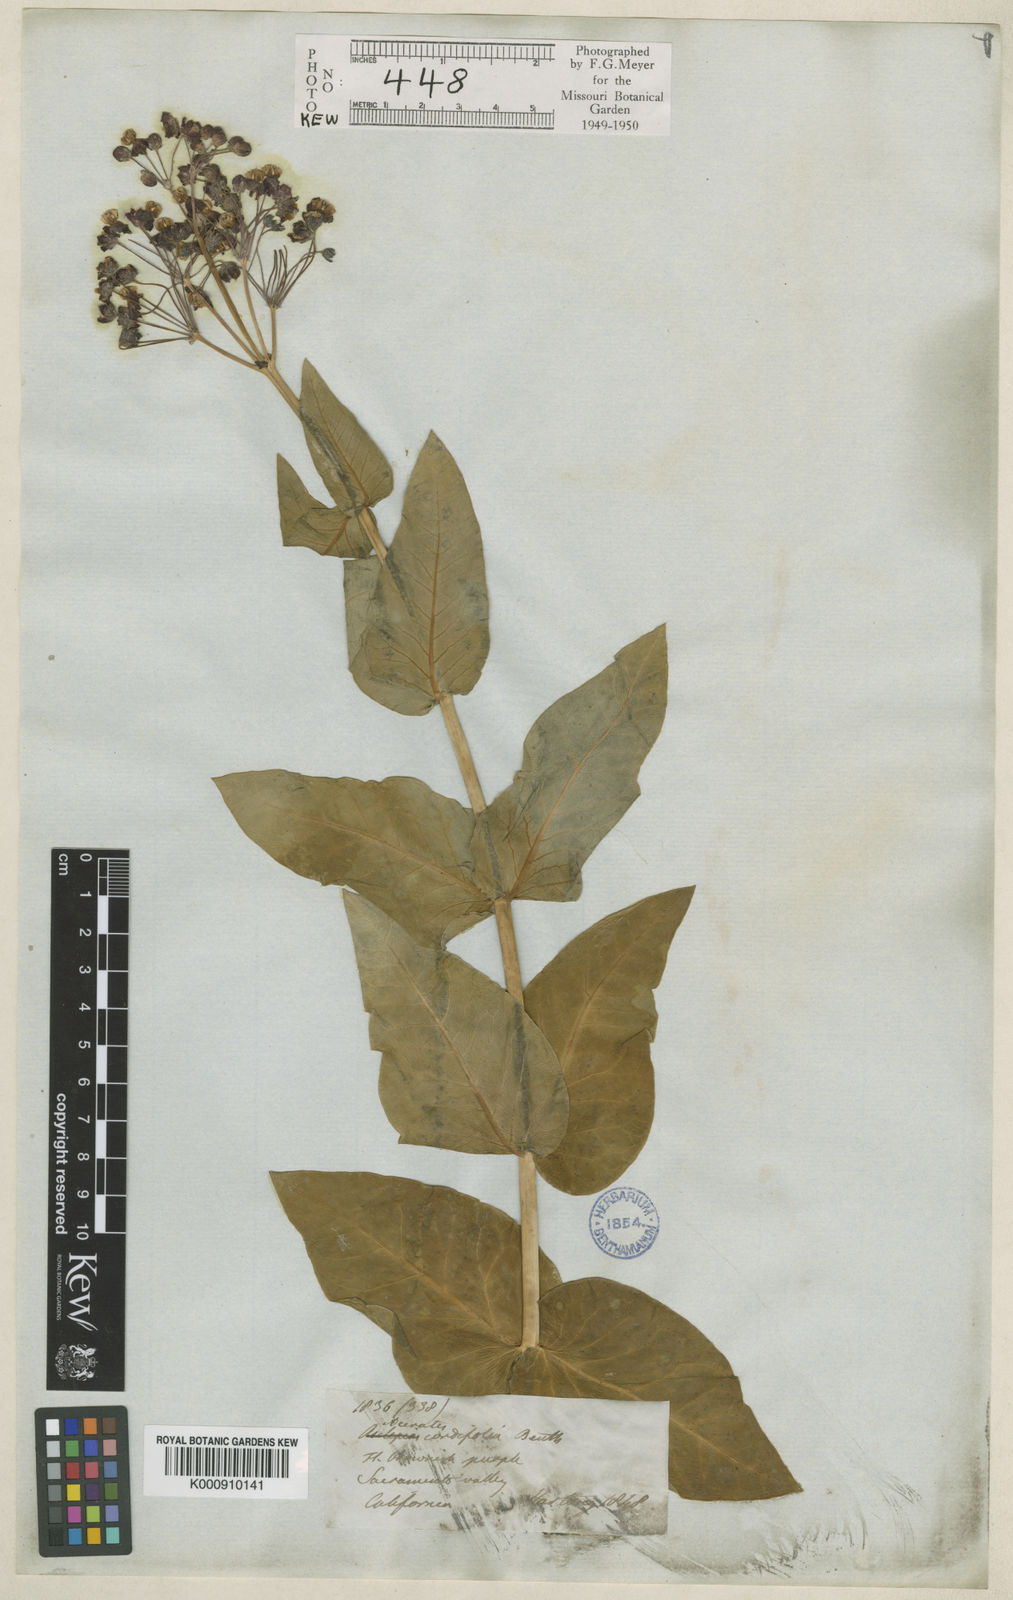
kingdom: Plantae
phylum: Tracheophyta
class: Magnoliopsida
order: Gentianales
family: Apocynaceae
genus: Asclepias
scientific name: Asclepias cordifolia
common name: Purple milkweed
